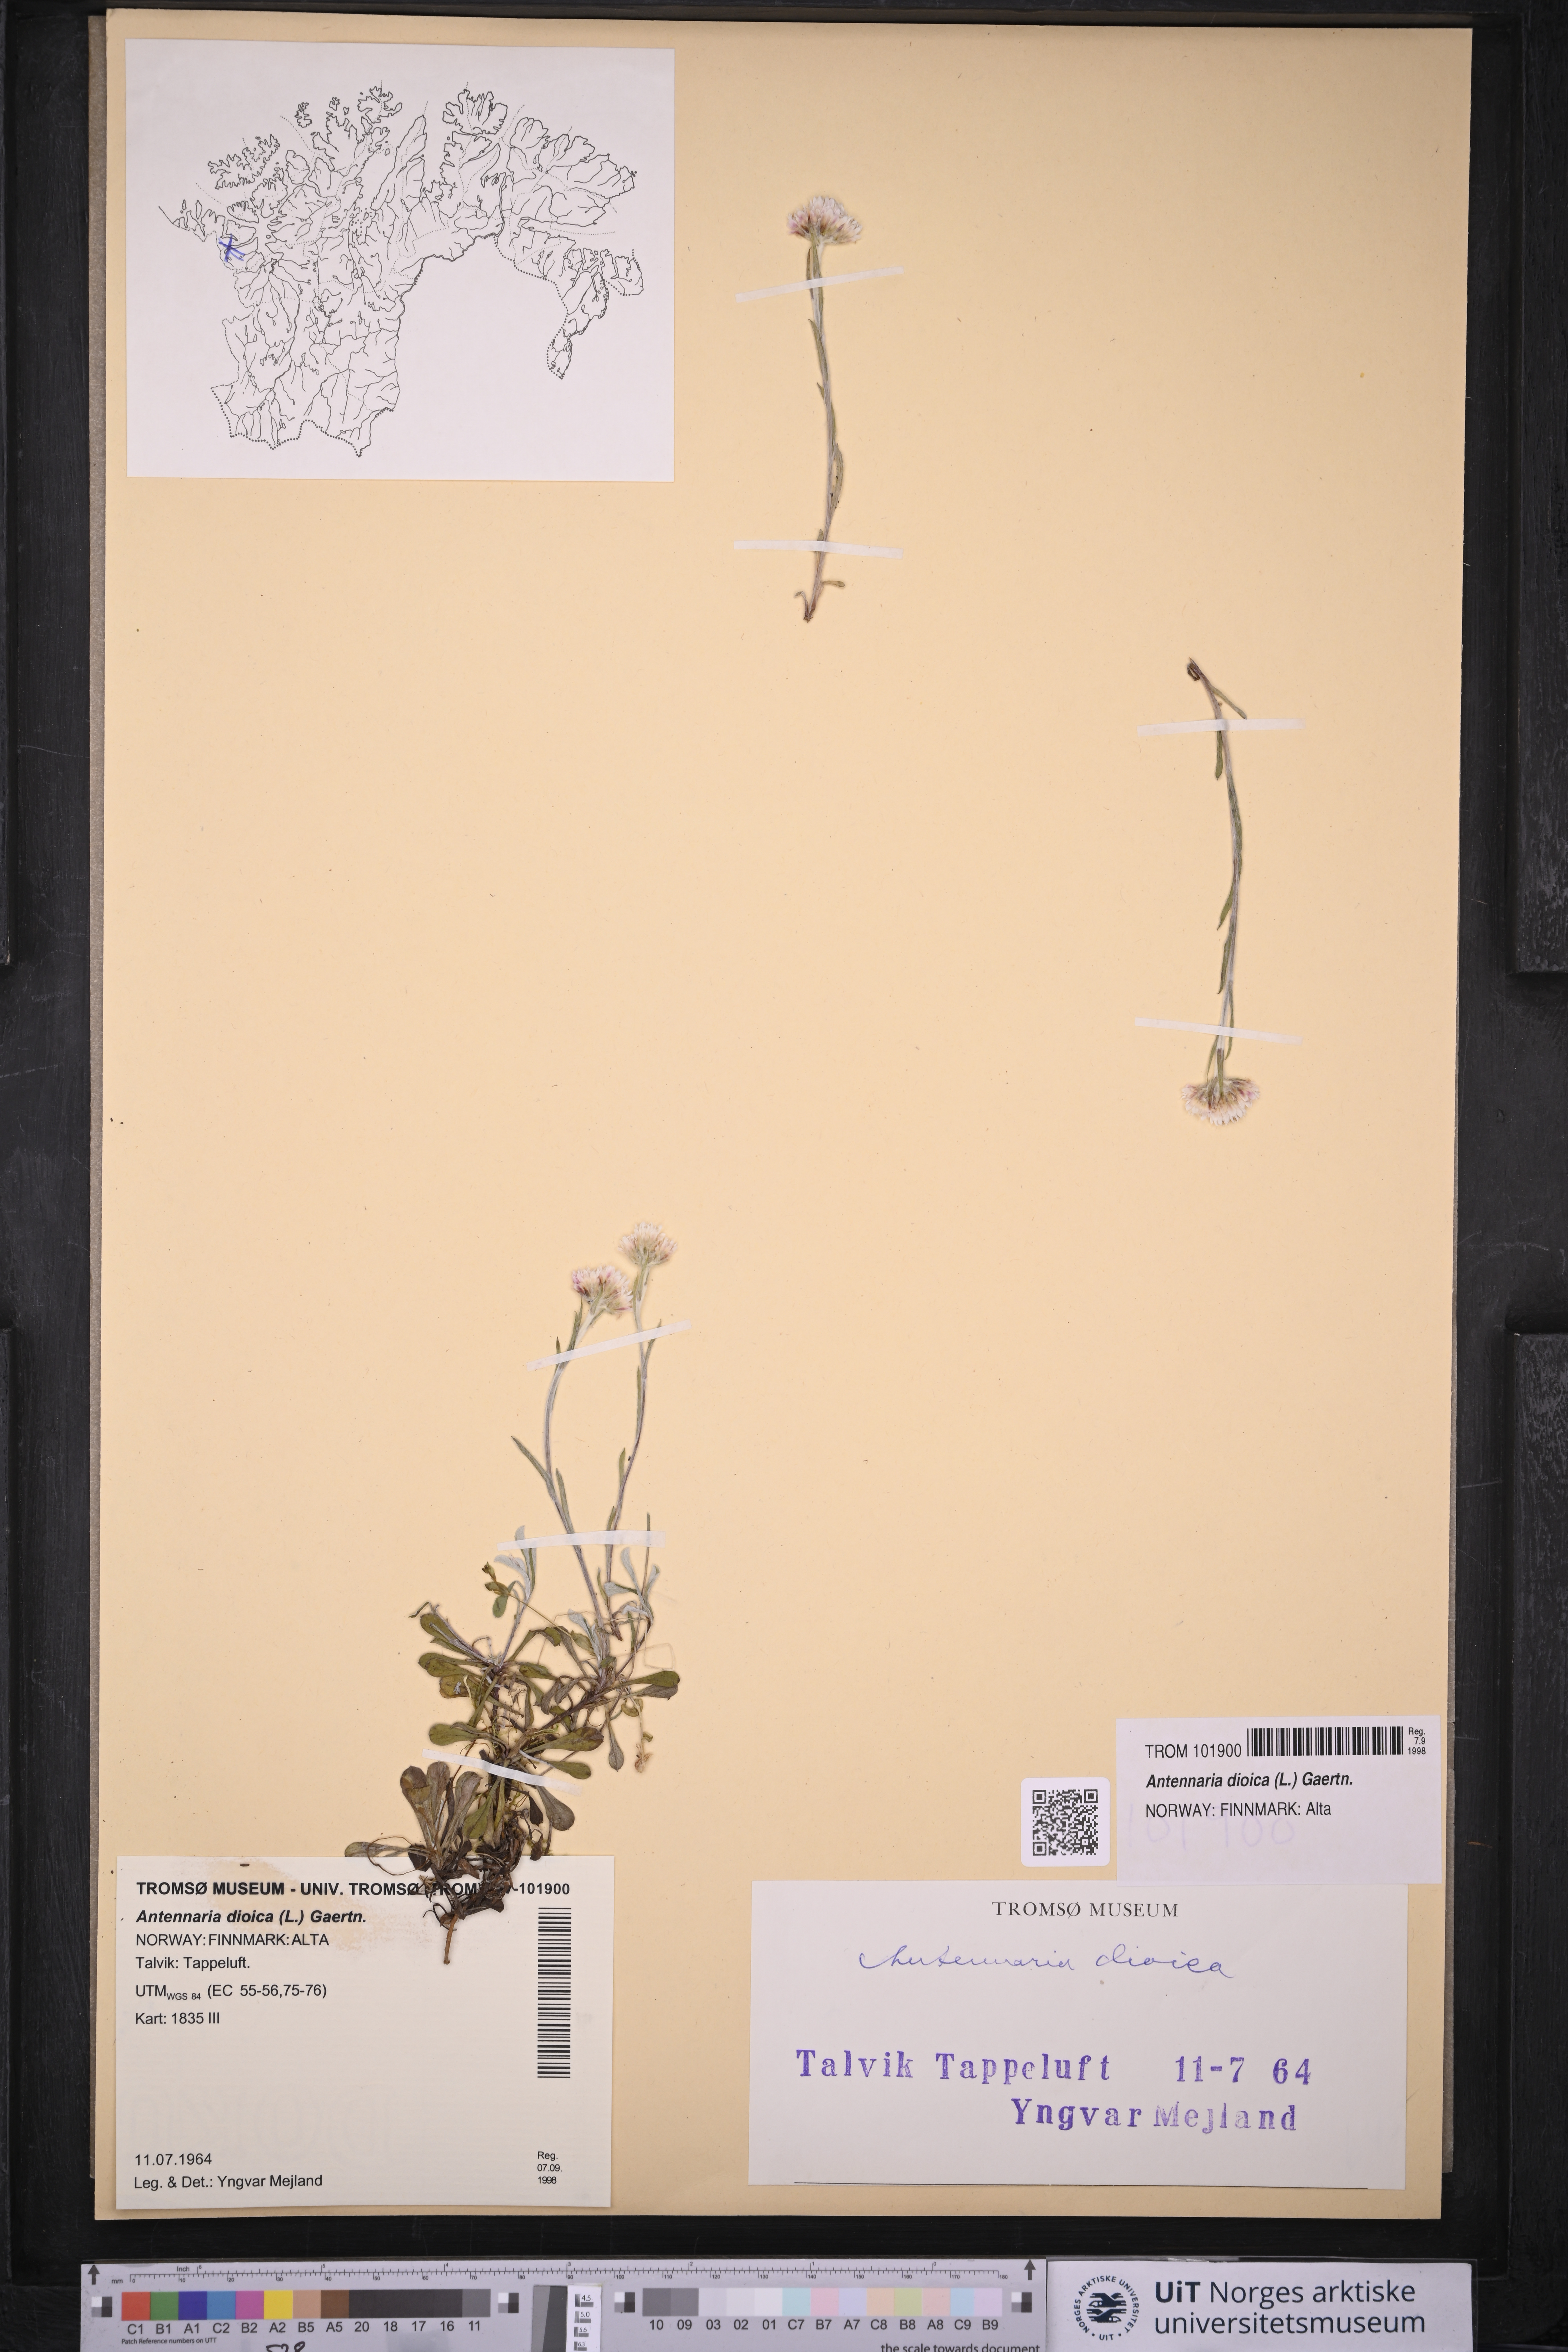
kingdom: Plantae
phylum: Tracheophyta
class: Magnoliopsida
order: Asterales
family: Asteraceae
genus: Antennaria
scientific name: Antennaria dioica
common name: Mountain everlasting
